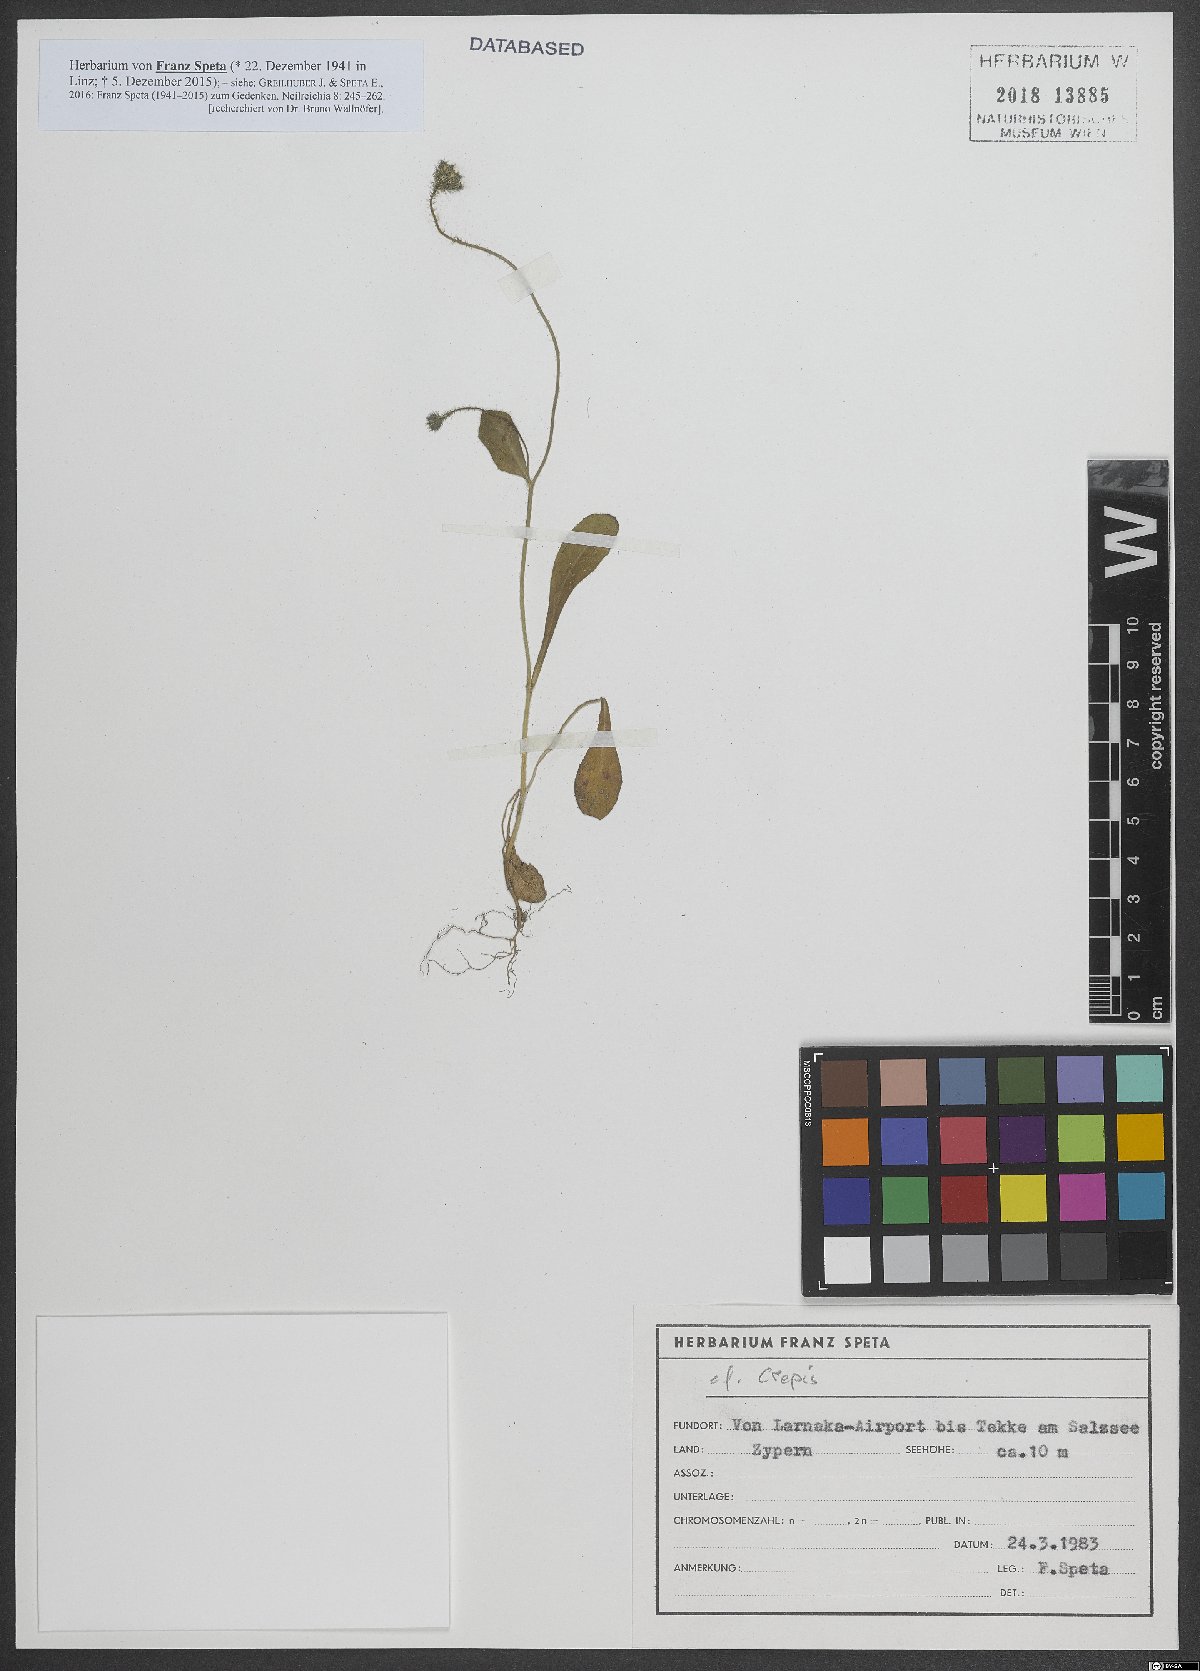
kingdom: Plantae
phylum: Tracheophyta
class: Magnoliopsida
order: Asterales
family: Asteraceae
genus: Crepis
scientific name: Crepis
